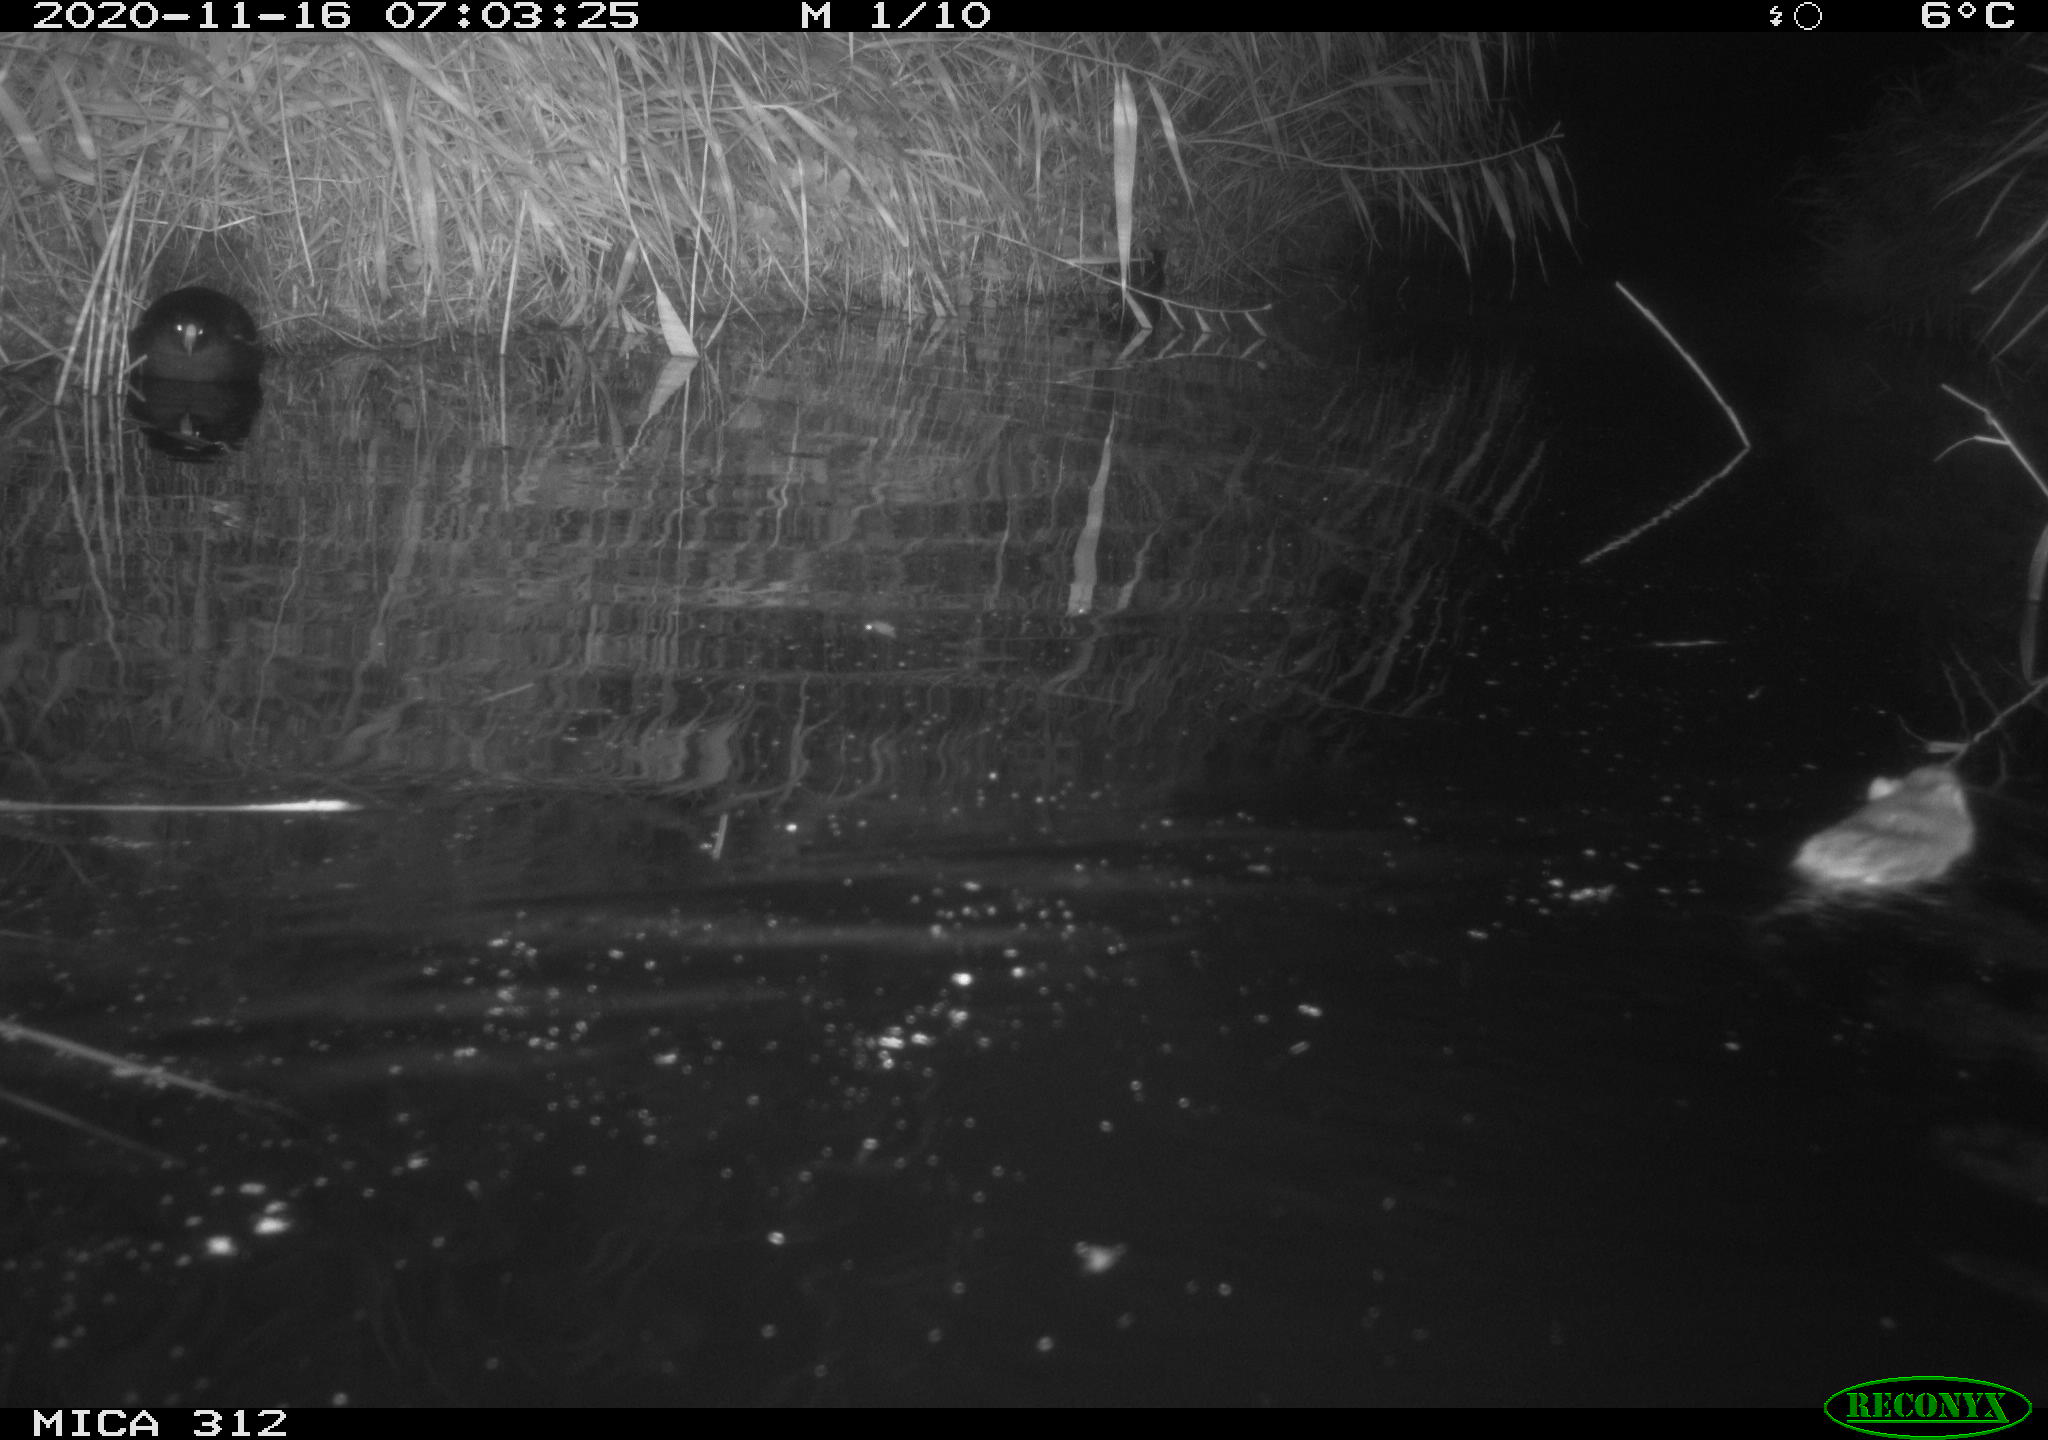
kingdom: Animalia
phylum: Chordata
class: Mammalia
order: Rodentia
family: Muridae
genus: Rattus
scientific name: Rattus norvegicus
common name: Brown rat
